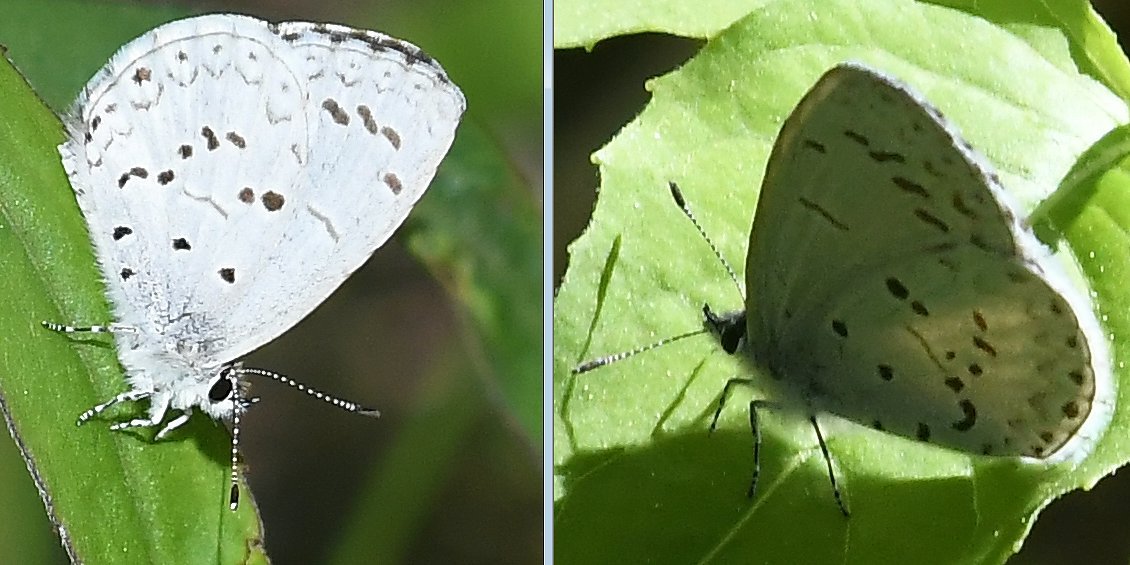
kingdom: Animalia
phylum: Arthropoda
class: Insecta
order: Lepidoptera
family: Lycaenidae
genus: Celastrina
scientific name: Celastrina serotina
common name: Cherry Gall Azure
